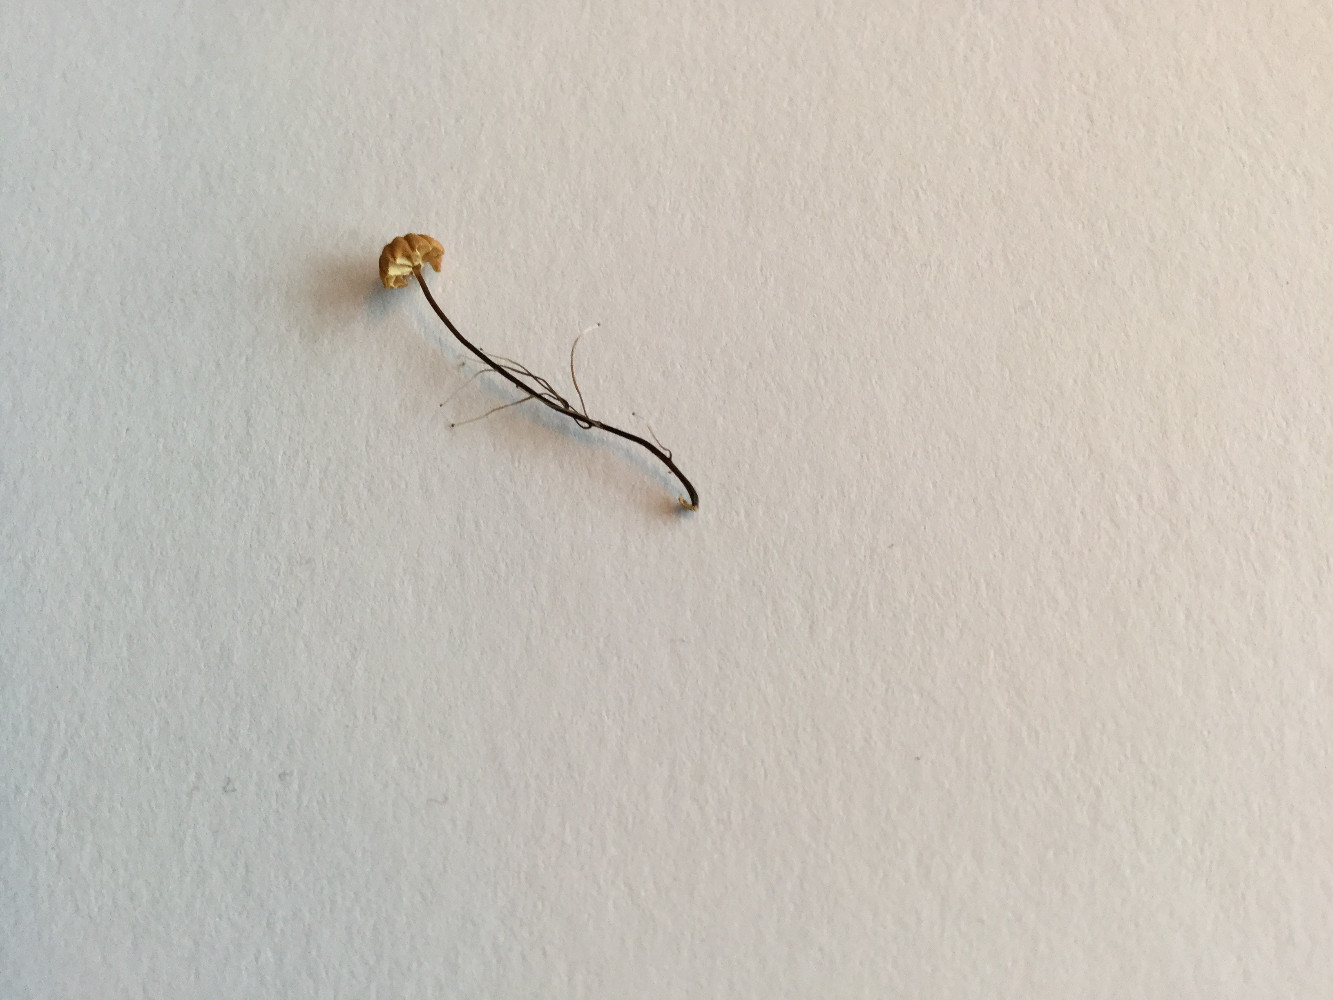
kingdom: Fungi
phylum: Basidiomycota
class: Agaricomycetes
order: Agaricales
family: Marasmiaceae
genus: Marasmius
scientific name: Marasmius bulliardii
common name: furet bruskhat
